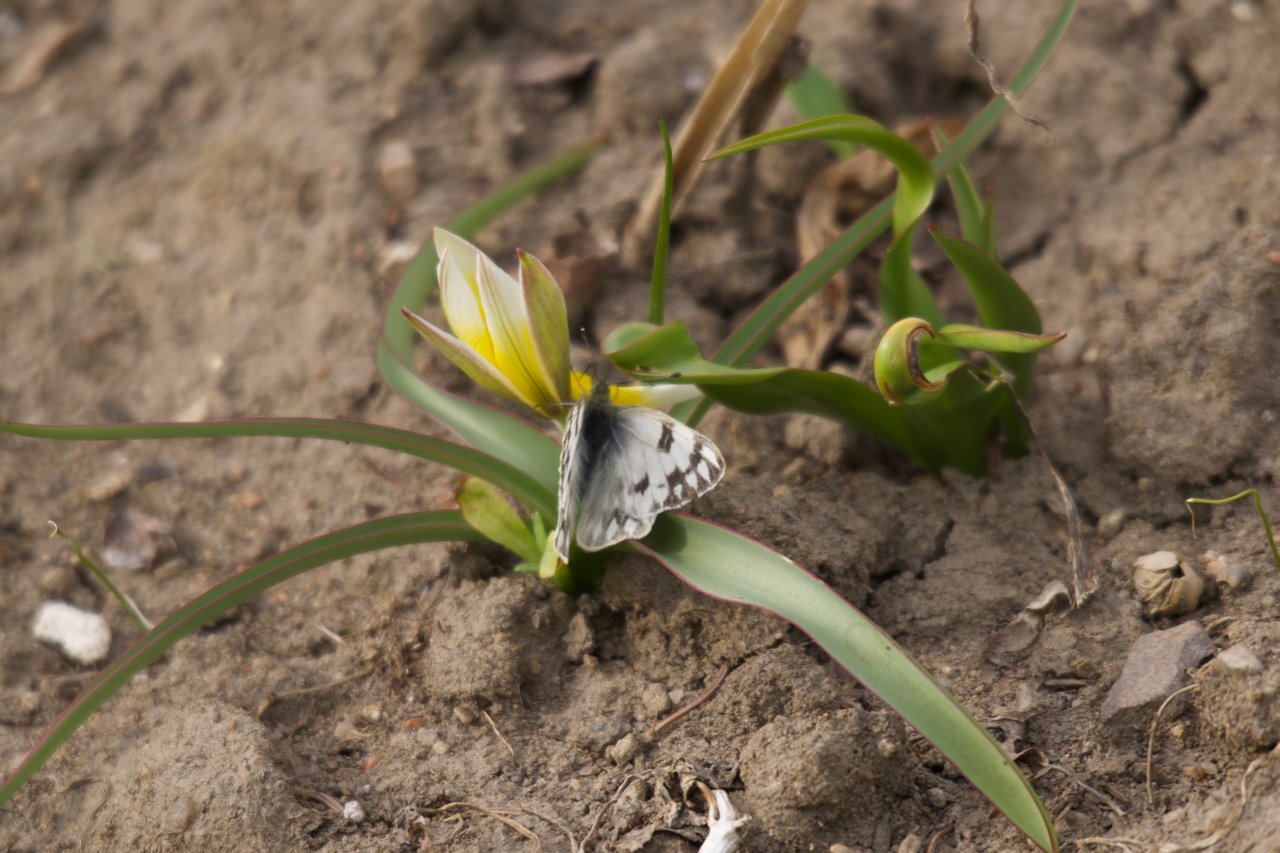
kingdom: Animalia
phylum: Arthropoda
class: Insecta
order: Lepidoptera
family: Pieridae
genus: Pontia
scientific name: Pontia occidentalis
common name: Western White
